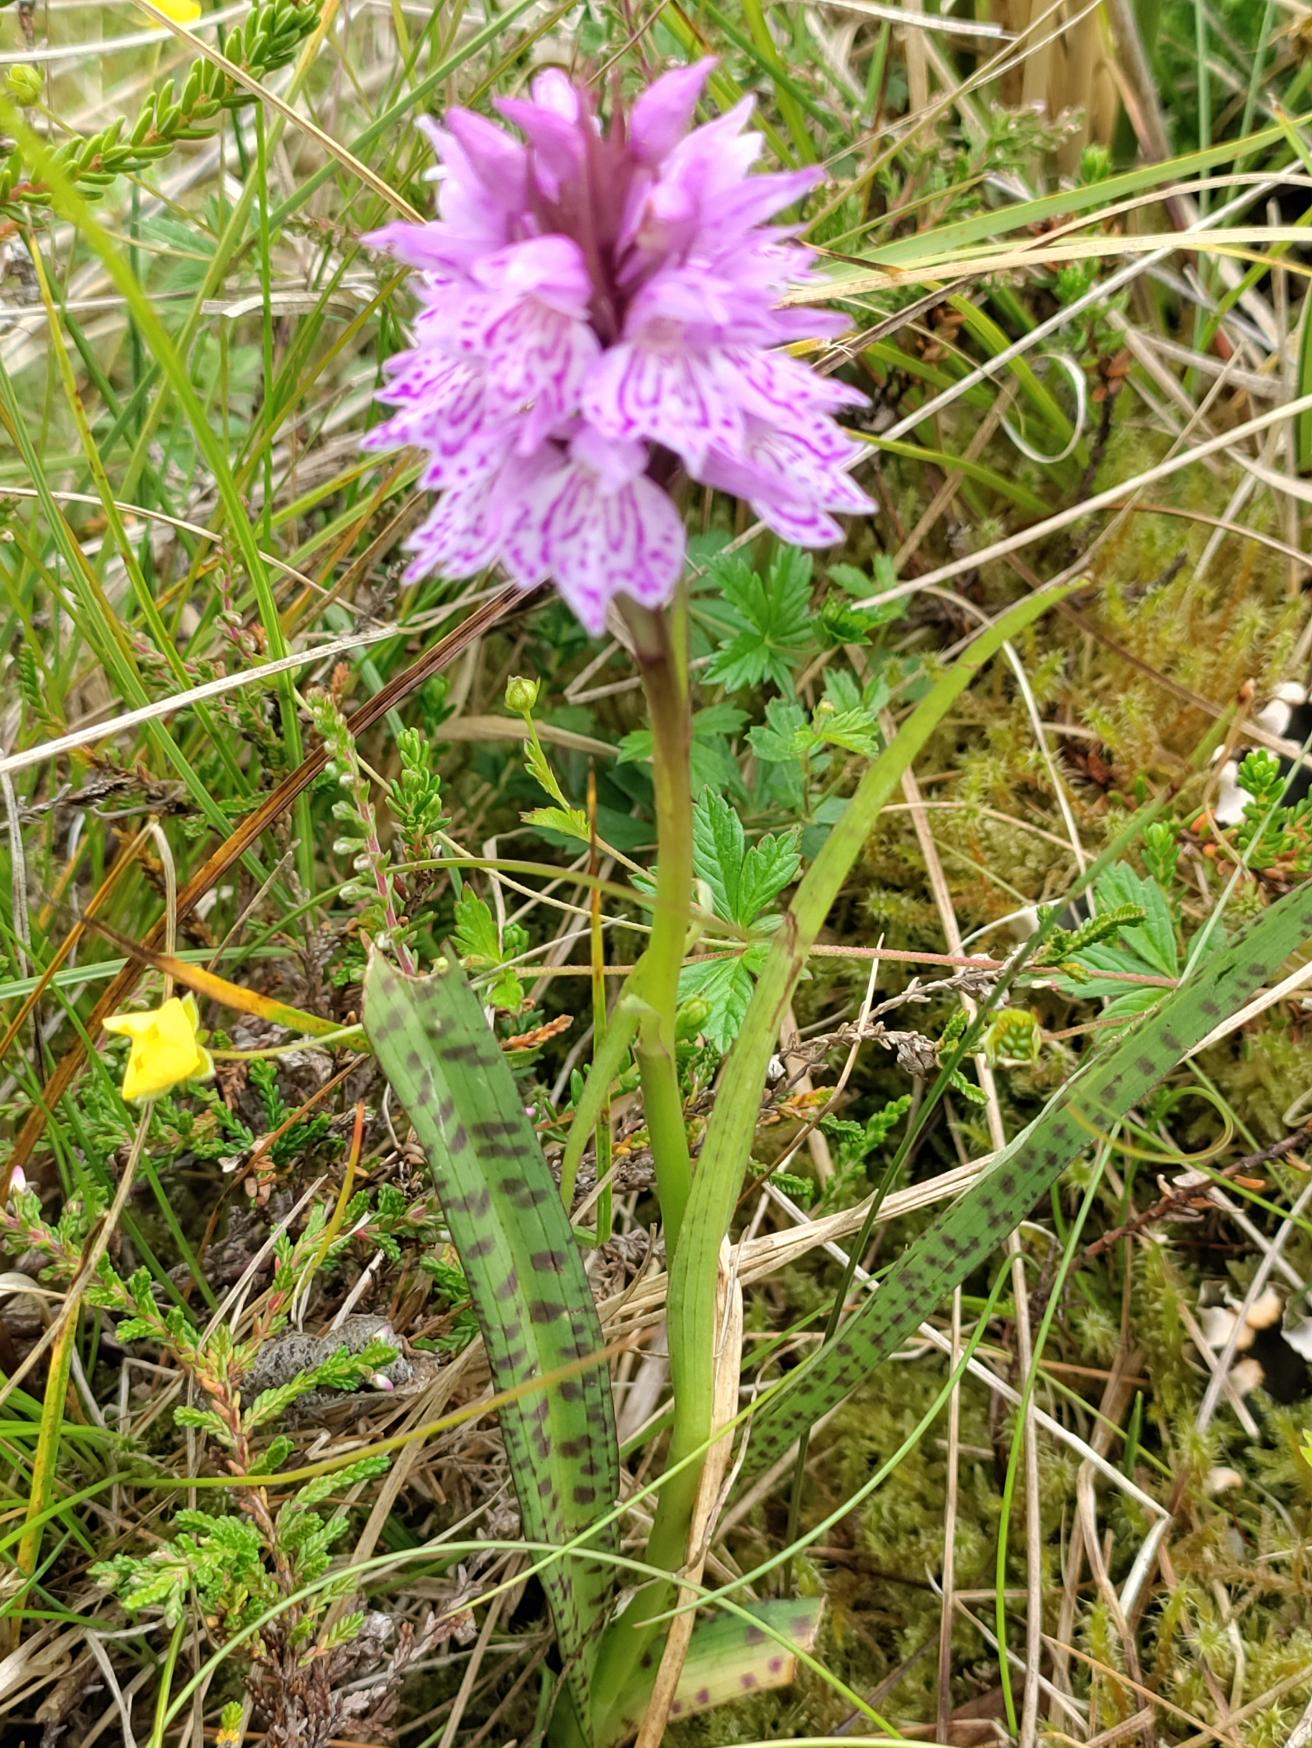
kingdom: Plantae
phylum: Tracheophyta
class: Liliopsida
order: Asparagales
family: Orchidaceae
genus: Dactylorhiza
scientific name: Dactylorhiza maculata
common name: Plettet gøgeurt (underart)
